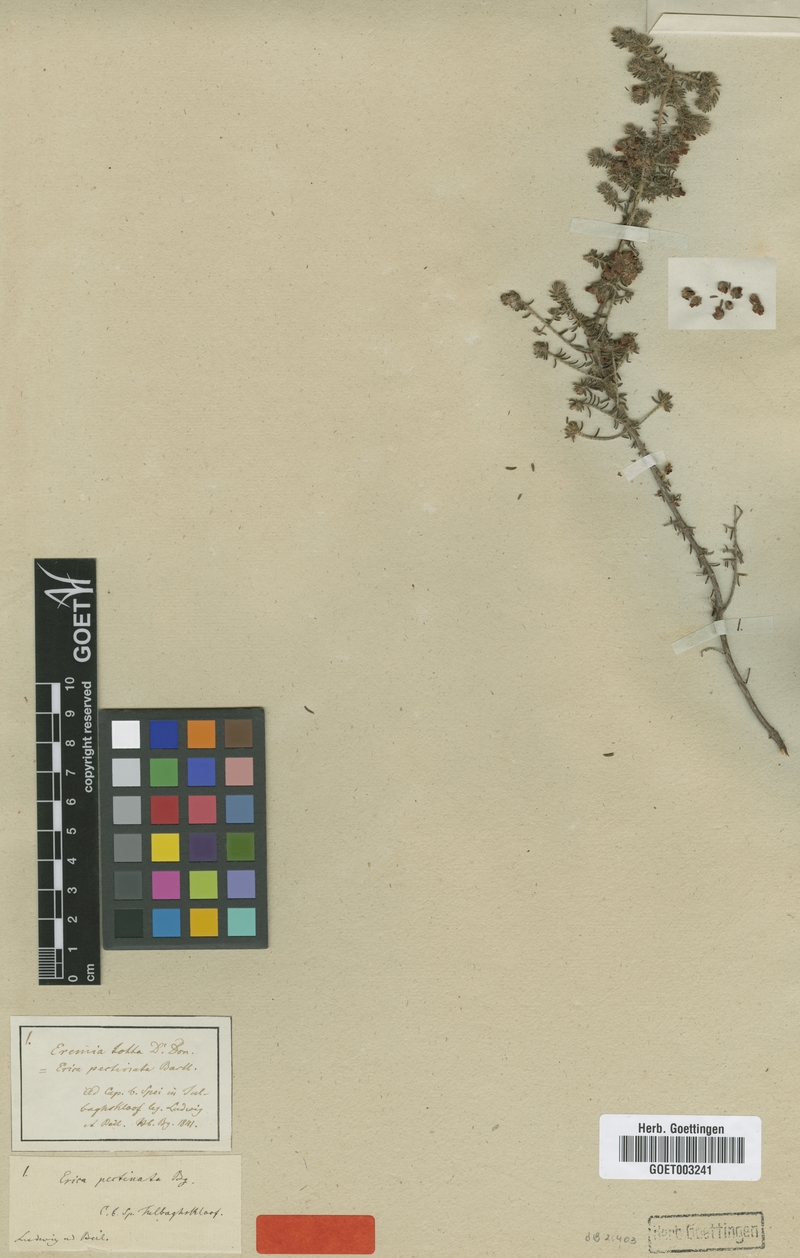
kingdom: Plantae
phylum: Tracheophyta
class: Magnoliopsida
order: Ericales
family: Ericaceae
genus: Erica
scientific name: Erica totta
